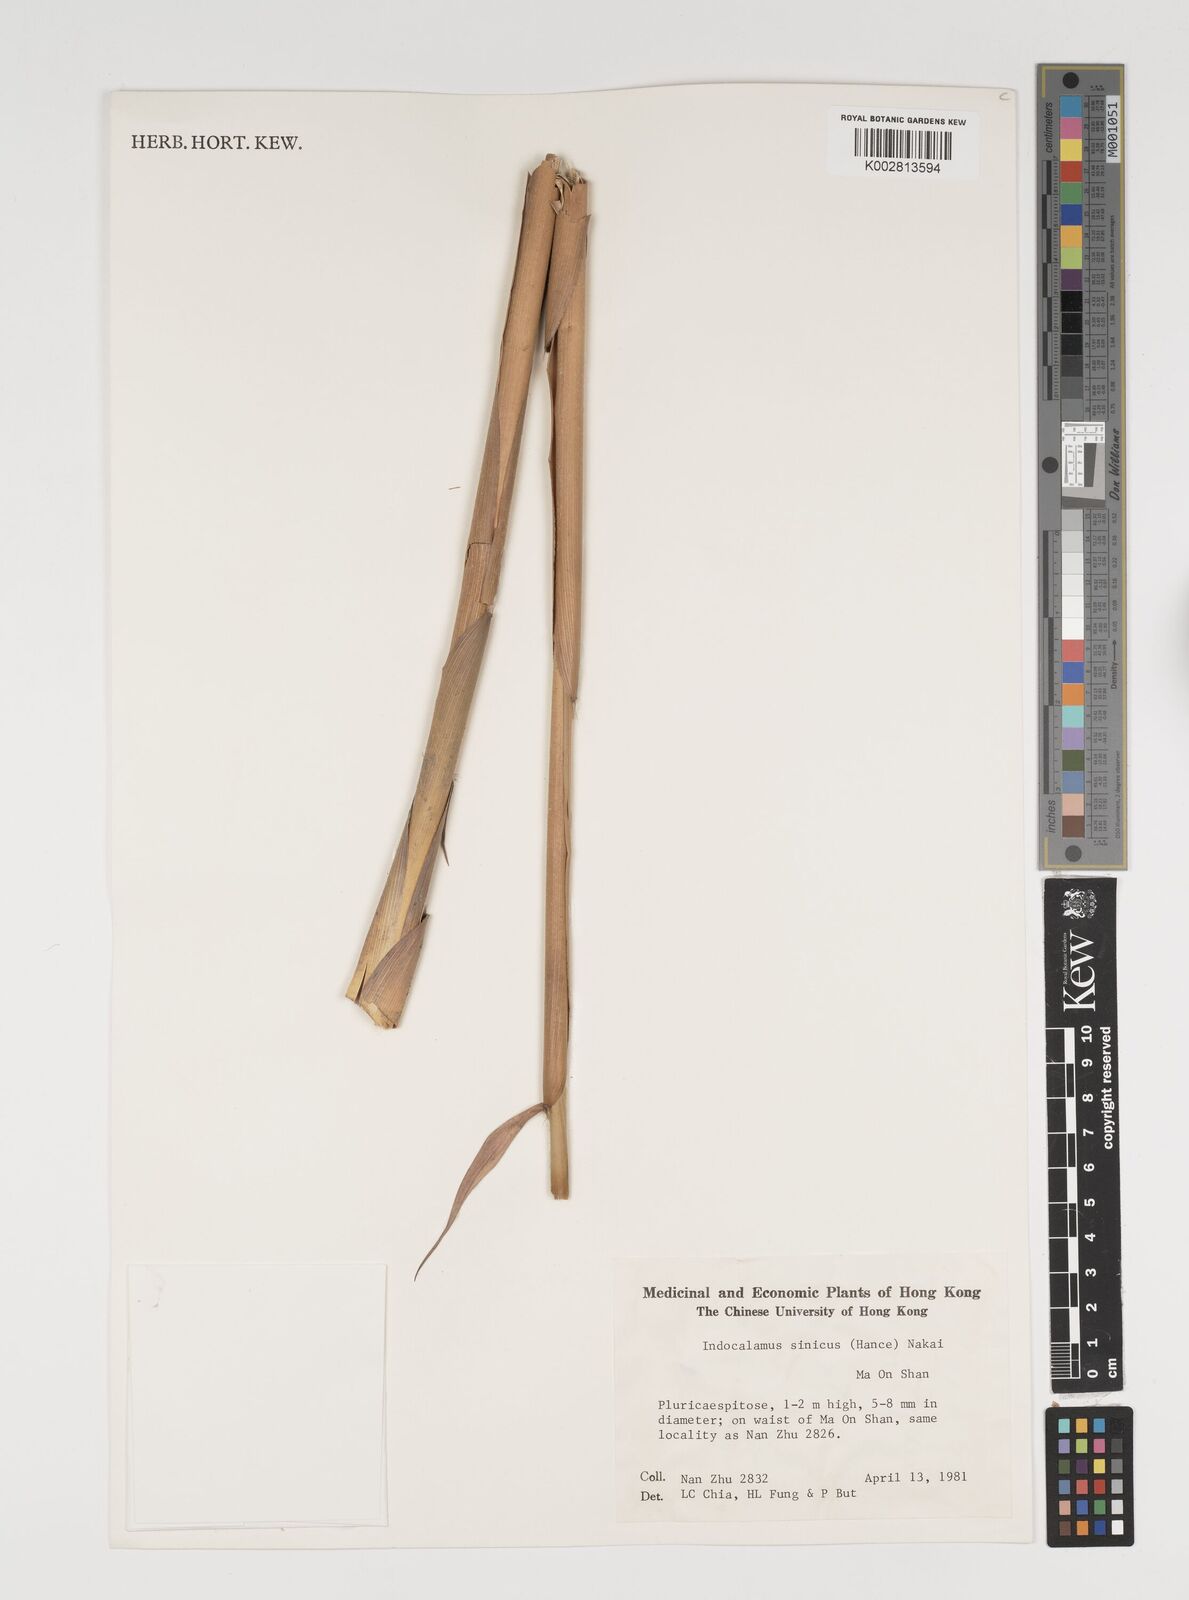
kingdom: Plantae
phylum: Tracheophyta
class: Liliopsida
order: Poales
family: Poaceae
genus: Indocalamus
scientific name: Indocalamus sinicus
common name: Chinese cane
